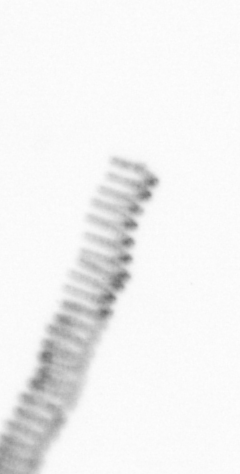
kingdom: Chromista
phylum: Ochrophyta
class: Bacillariophyceae
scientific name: Bacillariophyceae
